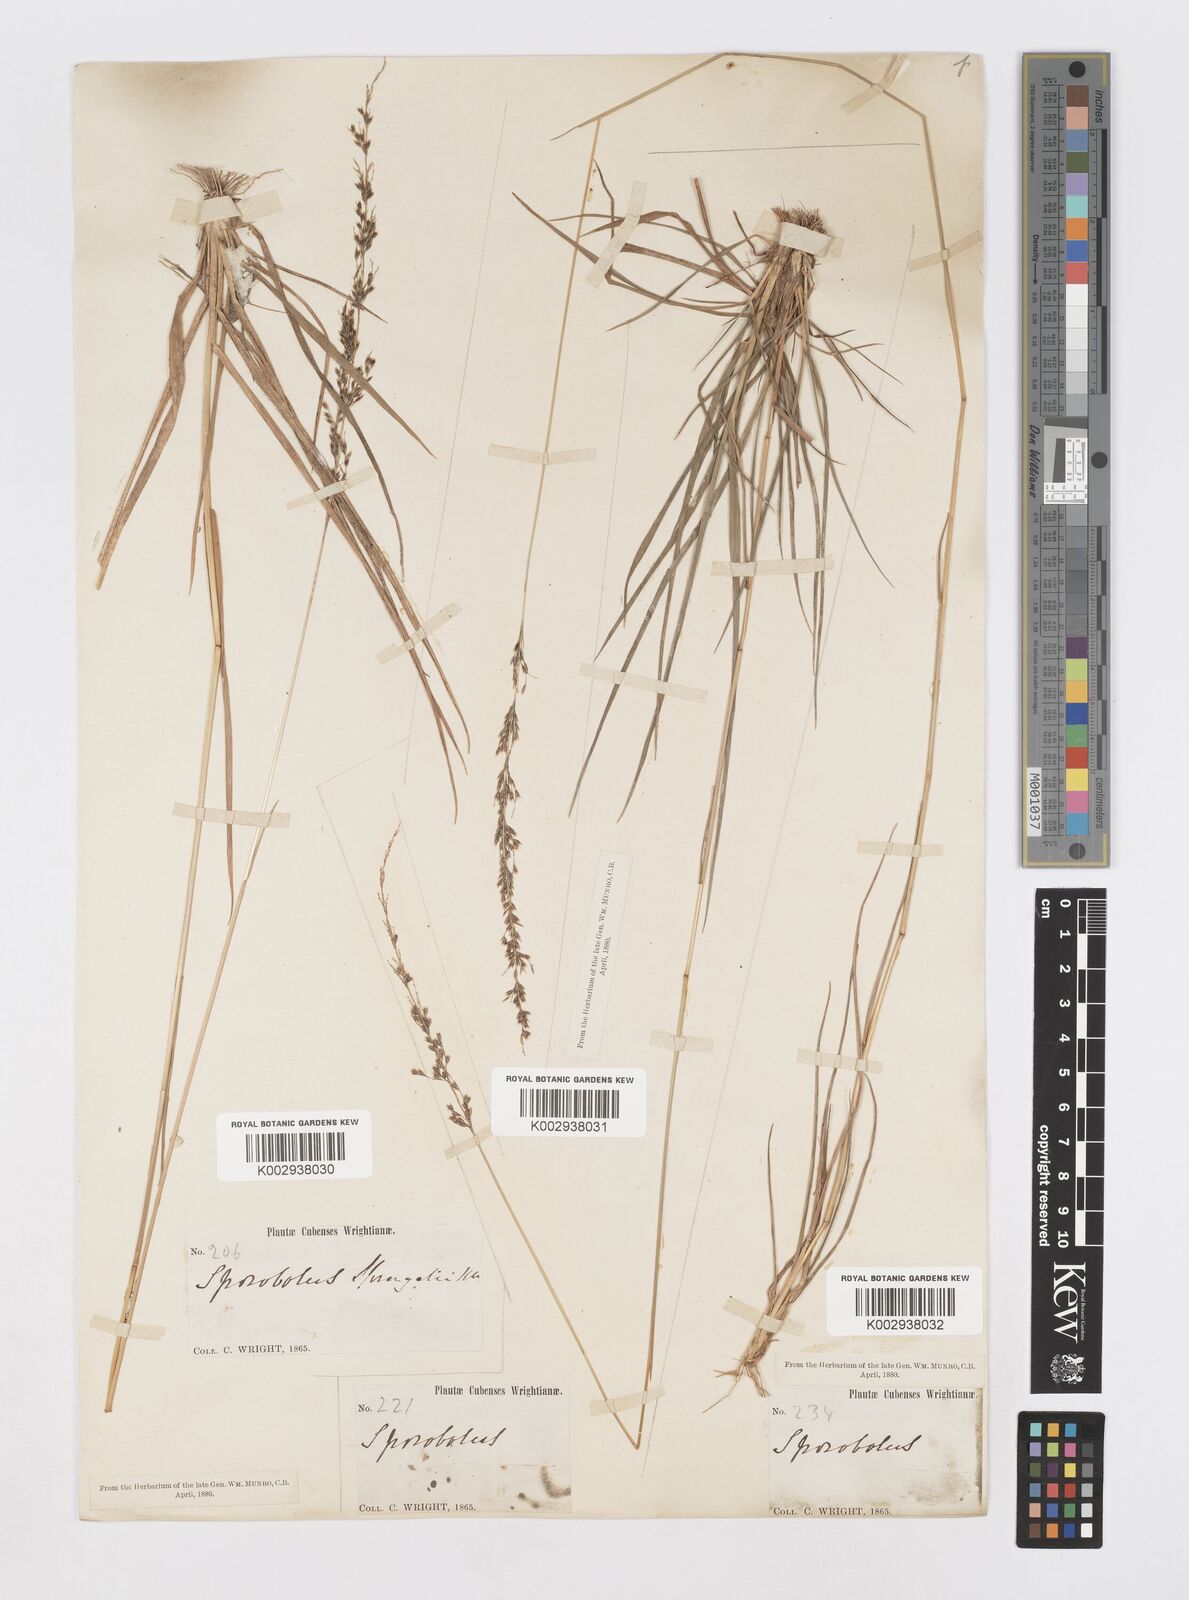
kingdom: Plantae
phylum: Tracheophyta
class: Liliopsida
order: Poales
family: Poaceae
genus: Sporobolus
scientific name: Sporobolus purpurascens
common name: Purple dropseed
